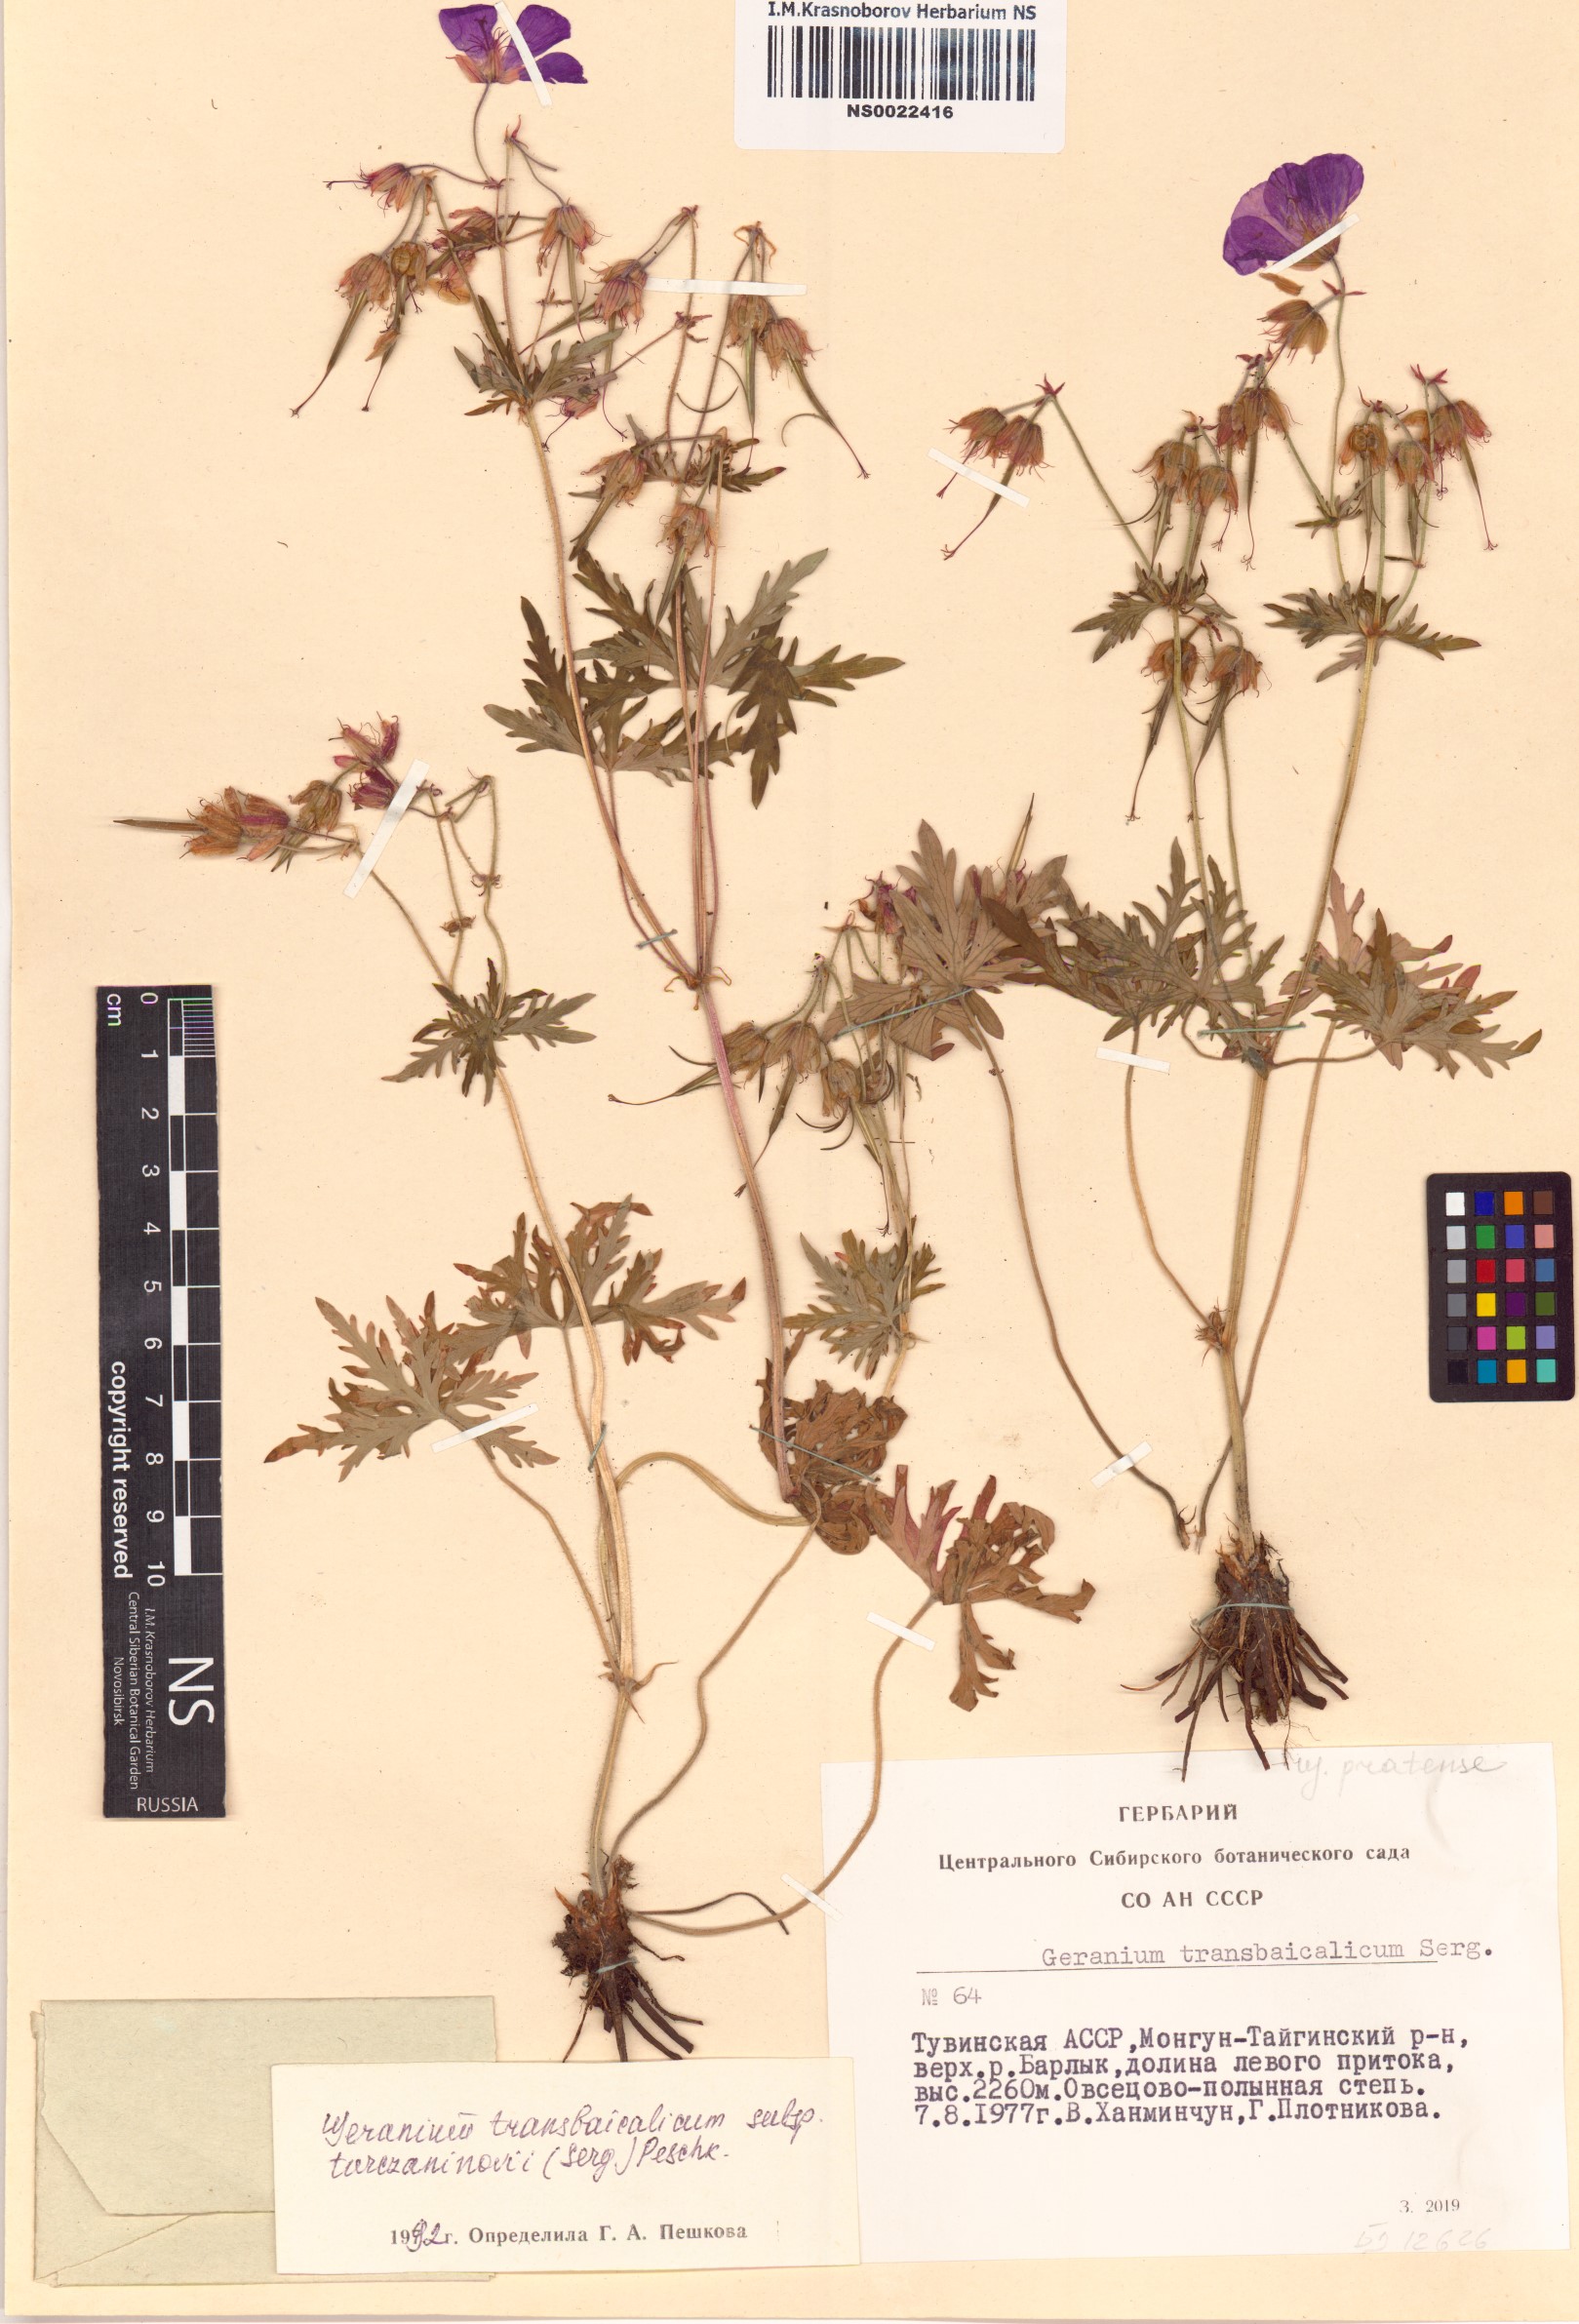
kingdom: Plantae
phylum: Tracheophyta
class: Magnoliopsida
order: Geraniales
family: Geraniaceae
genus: Geranium
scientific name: Geranium pratense
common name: Meadow crane's-bill
